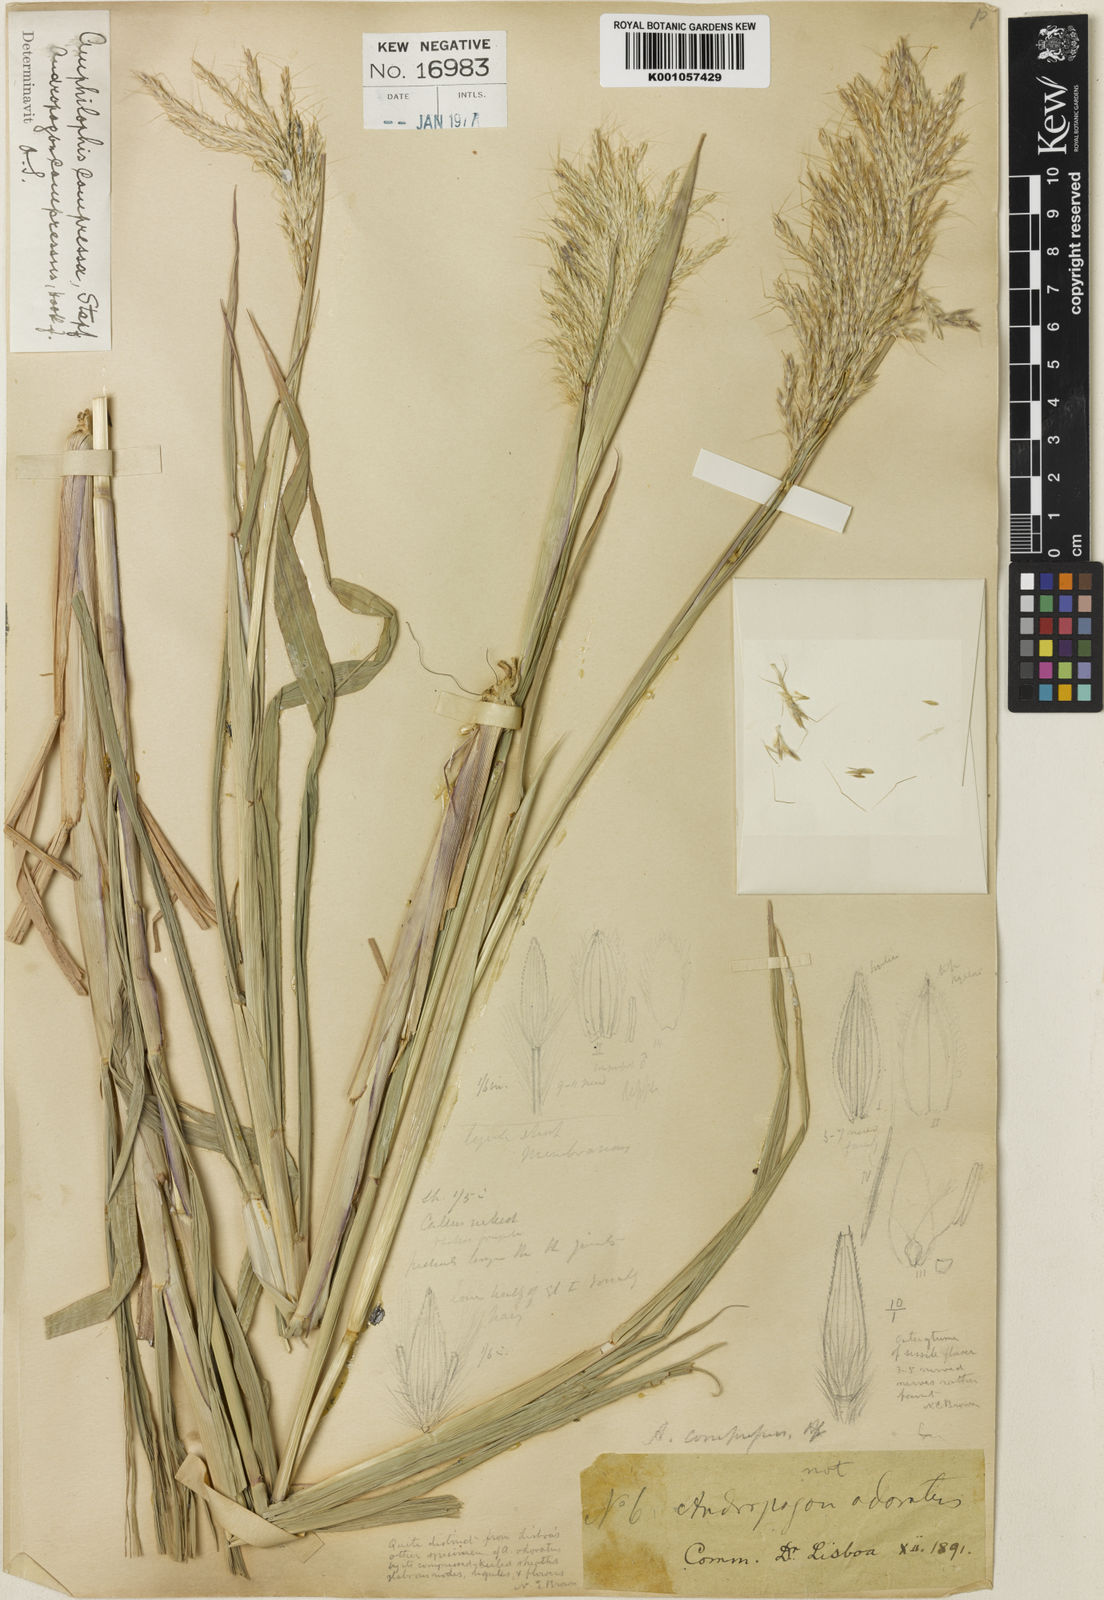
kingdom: Plantae
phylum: Tracheophyta
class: Liliopsida
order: Poales
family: Poaceae
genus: Bothriochloa
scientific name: Bothriochloa compressa
